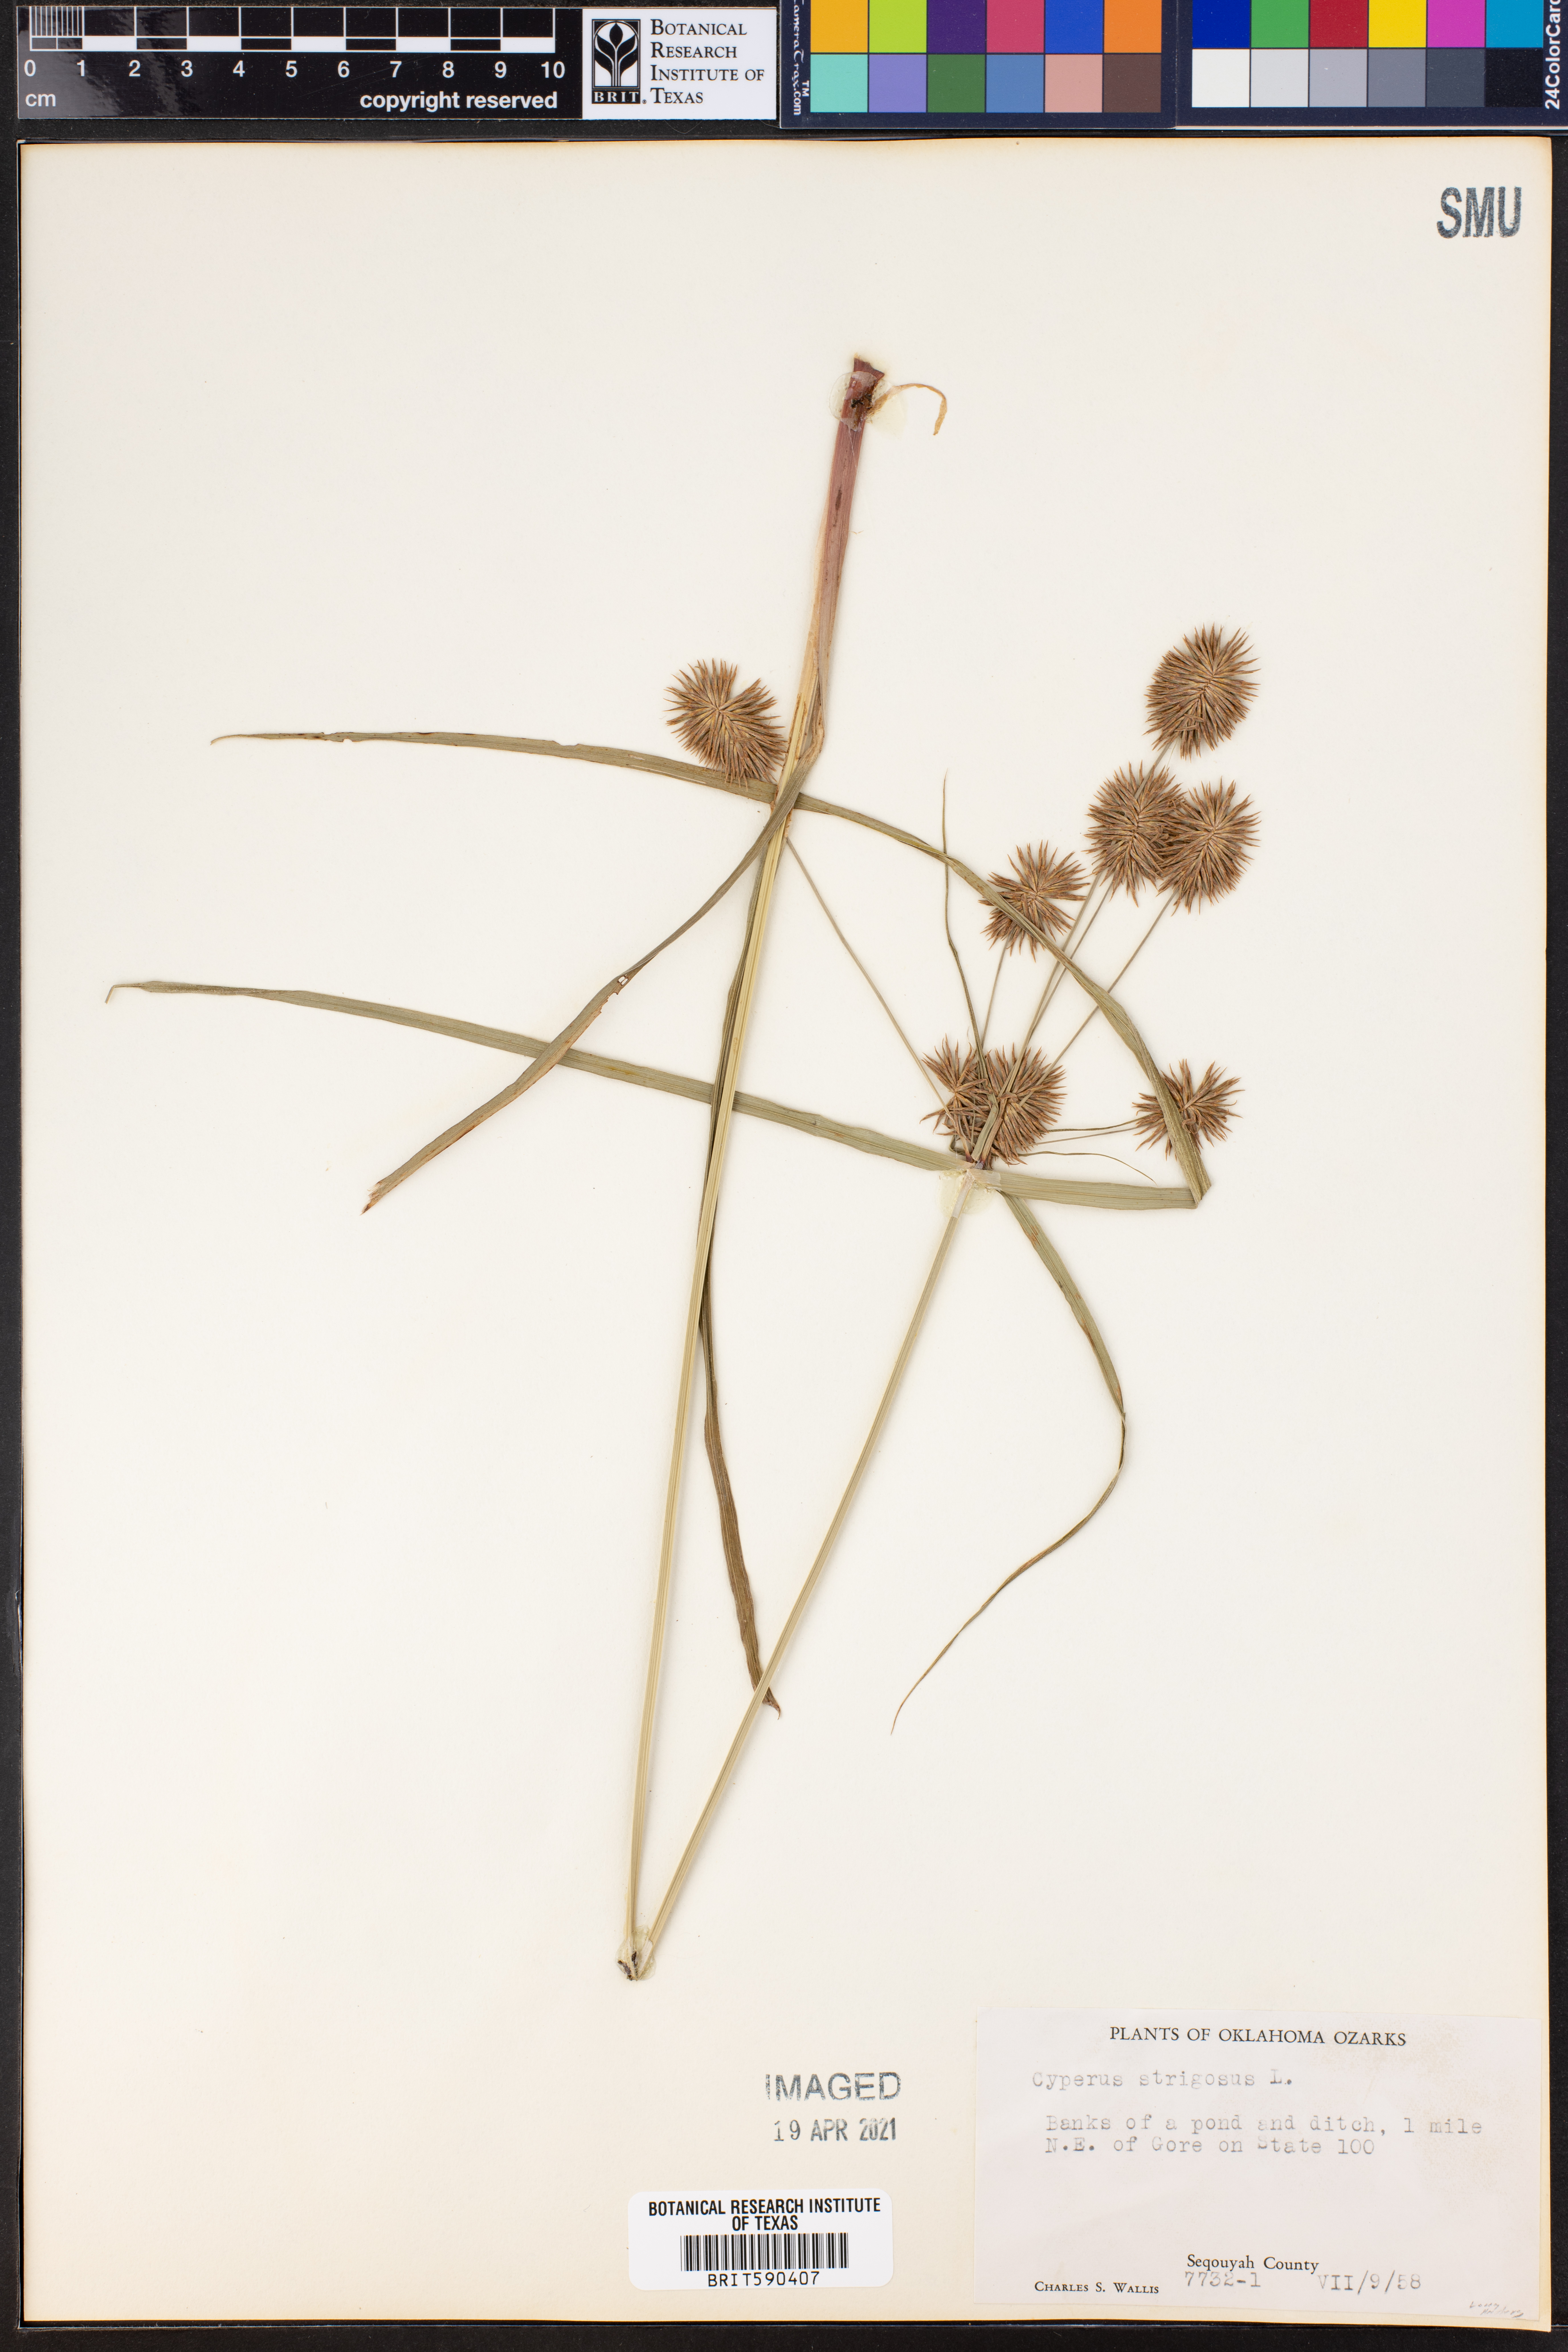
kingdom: Plantae
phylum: Tracheophyta
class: Liliopsida
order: Poales
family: Cyperaceae
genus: Cyperus
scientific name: Cyperus strigosus
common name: False nutsedge
